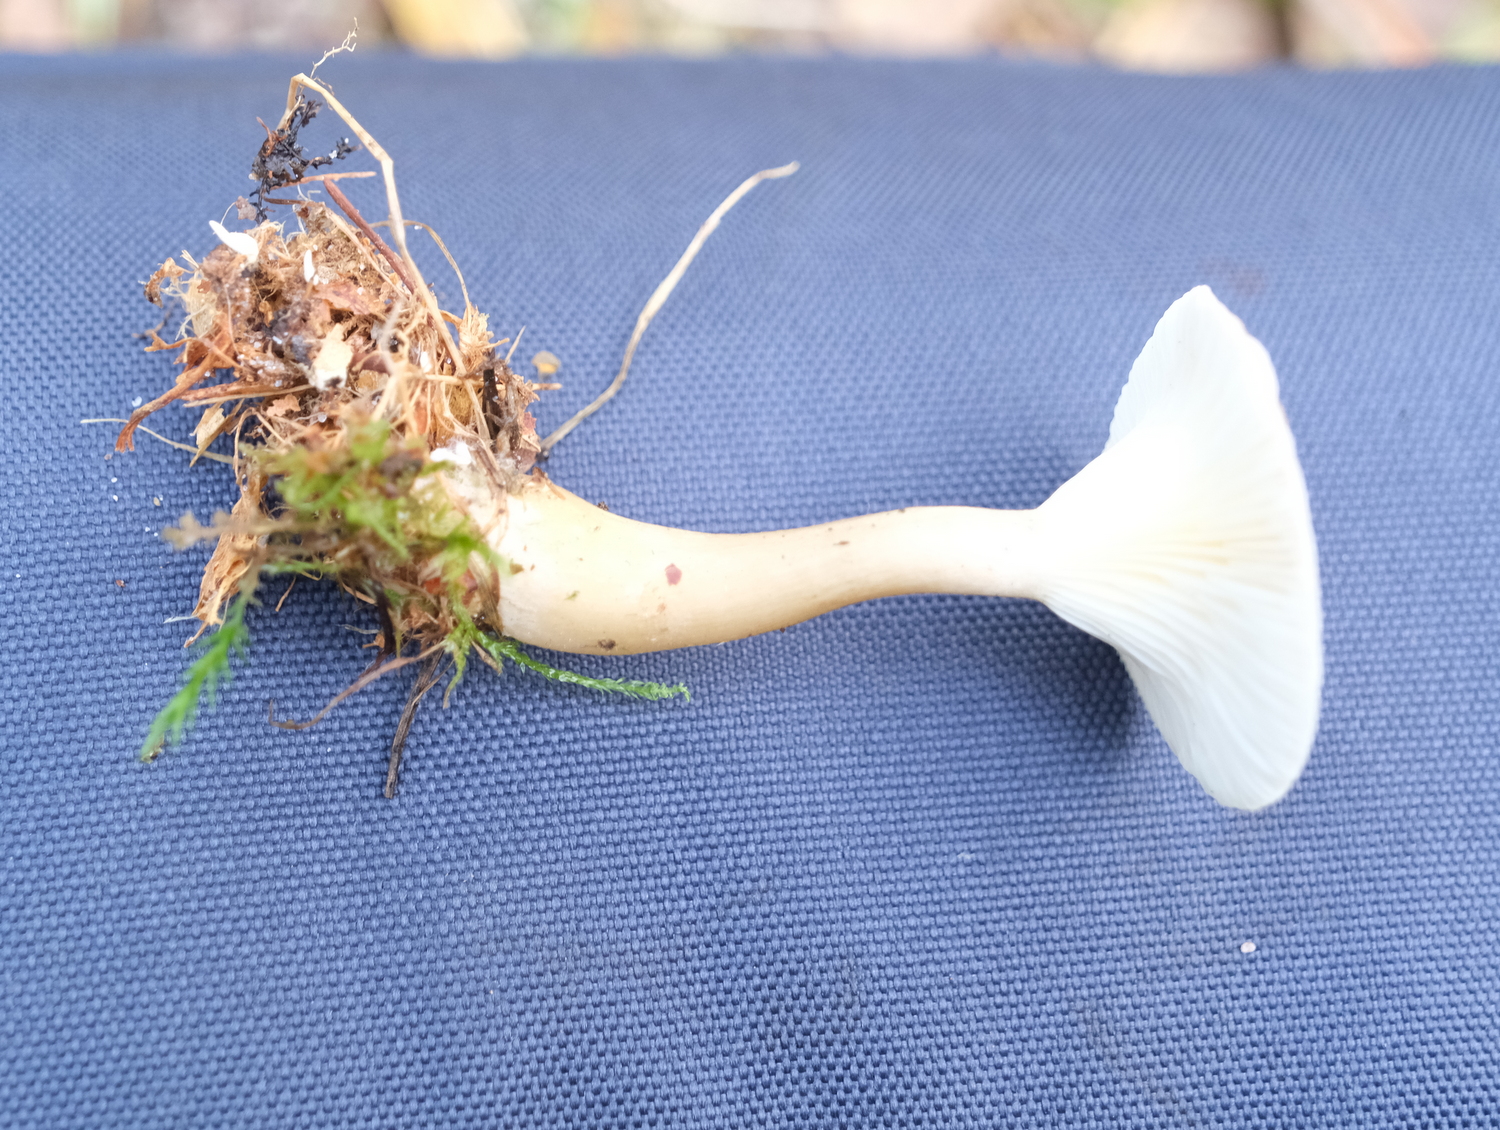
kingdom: Fungi
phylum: Basidiomycota
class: Agaricomycetes
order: Agaricales
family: Hygrophoraceae
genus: Ampulloclitocybe
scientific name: Ampulloclitocybe clavipes
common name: køllefod
